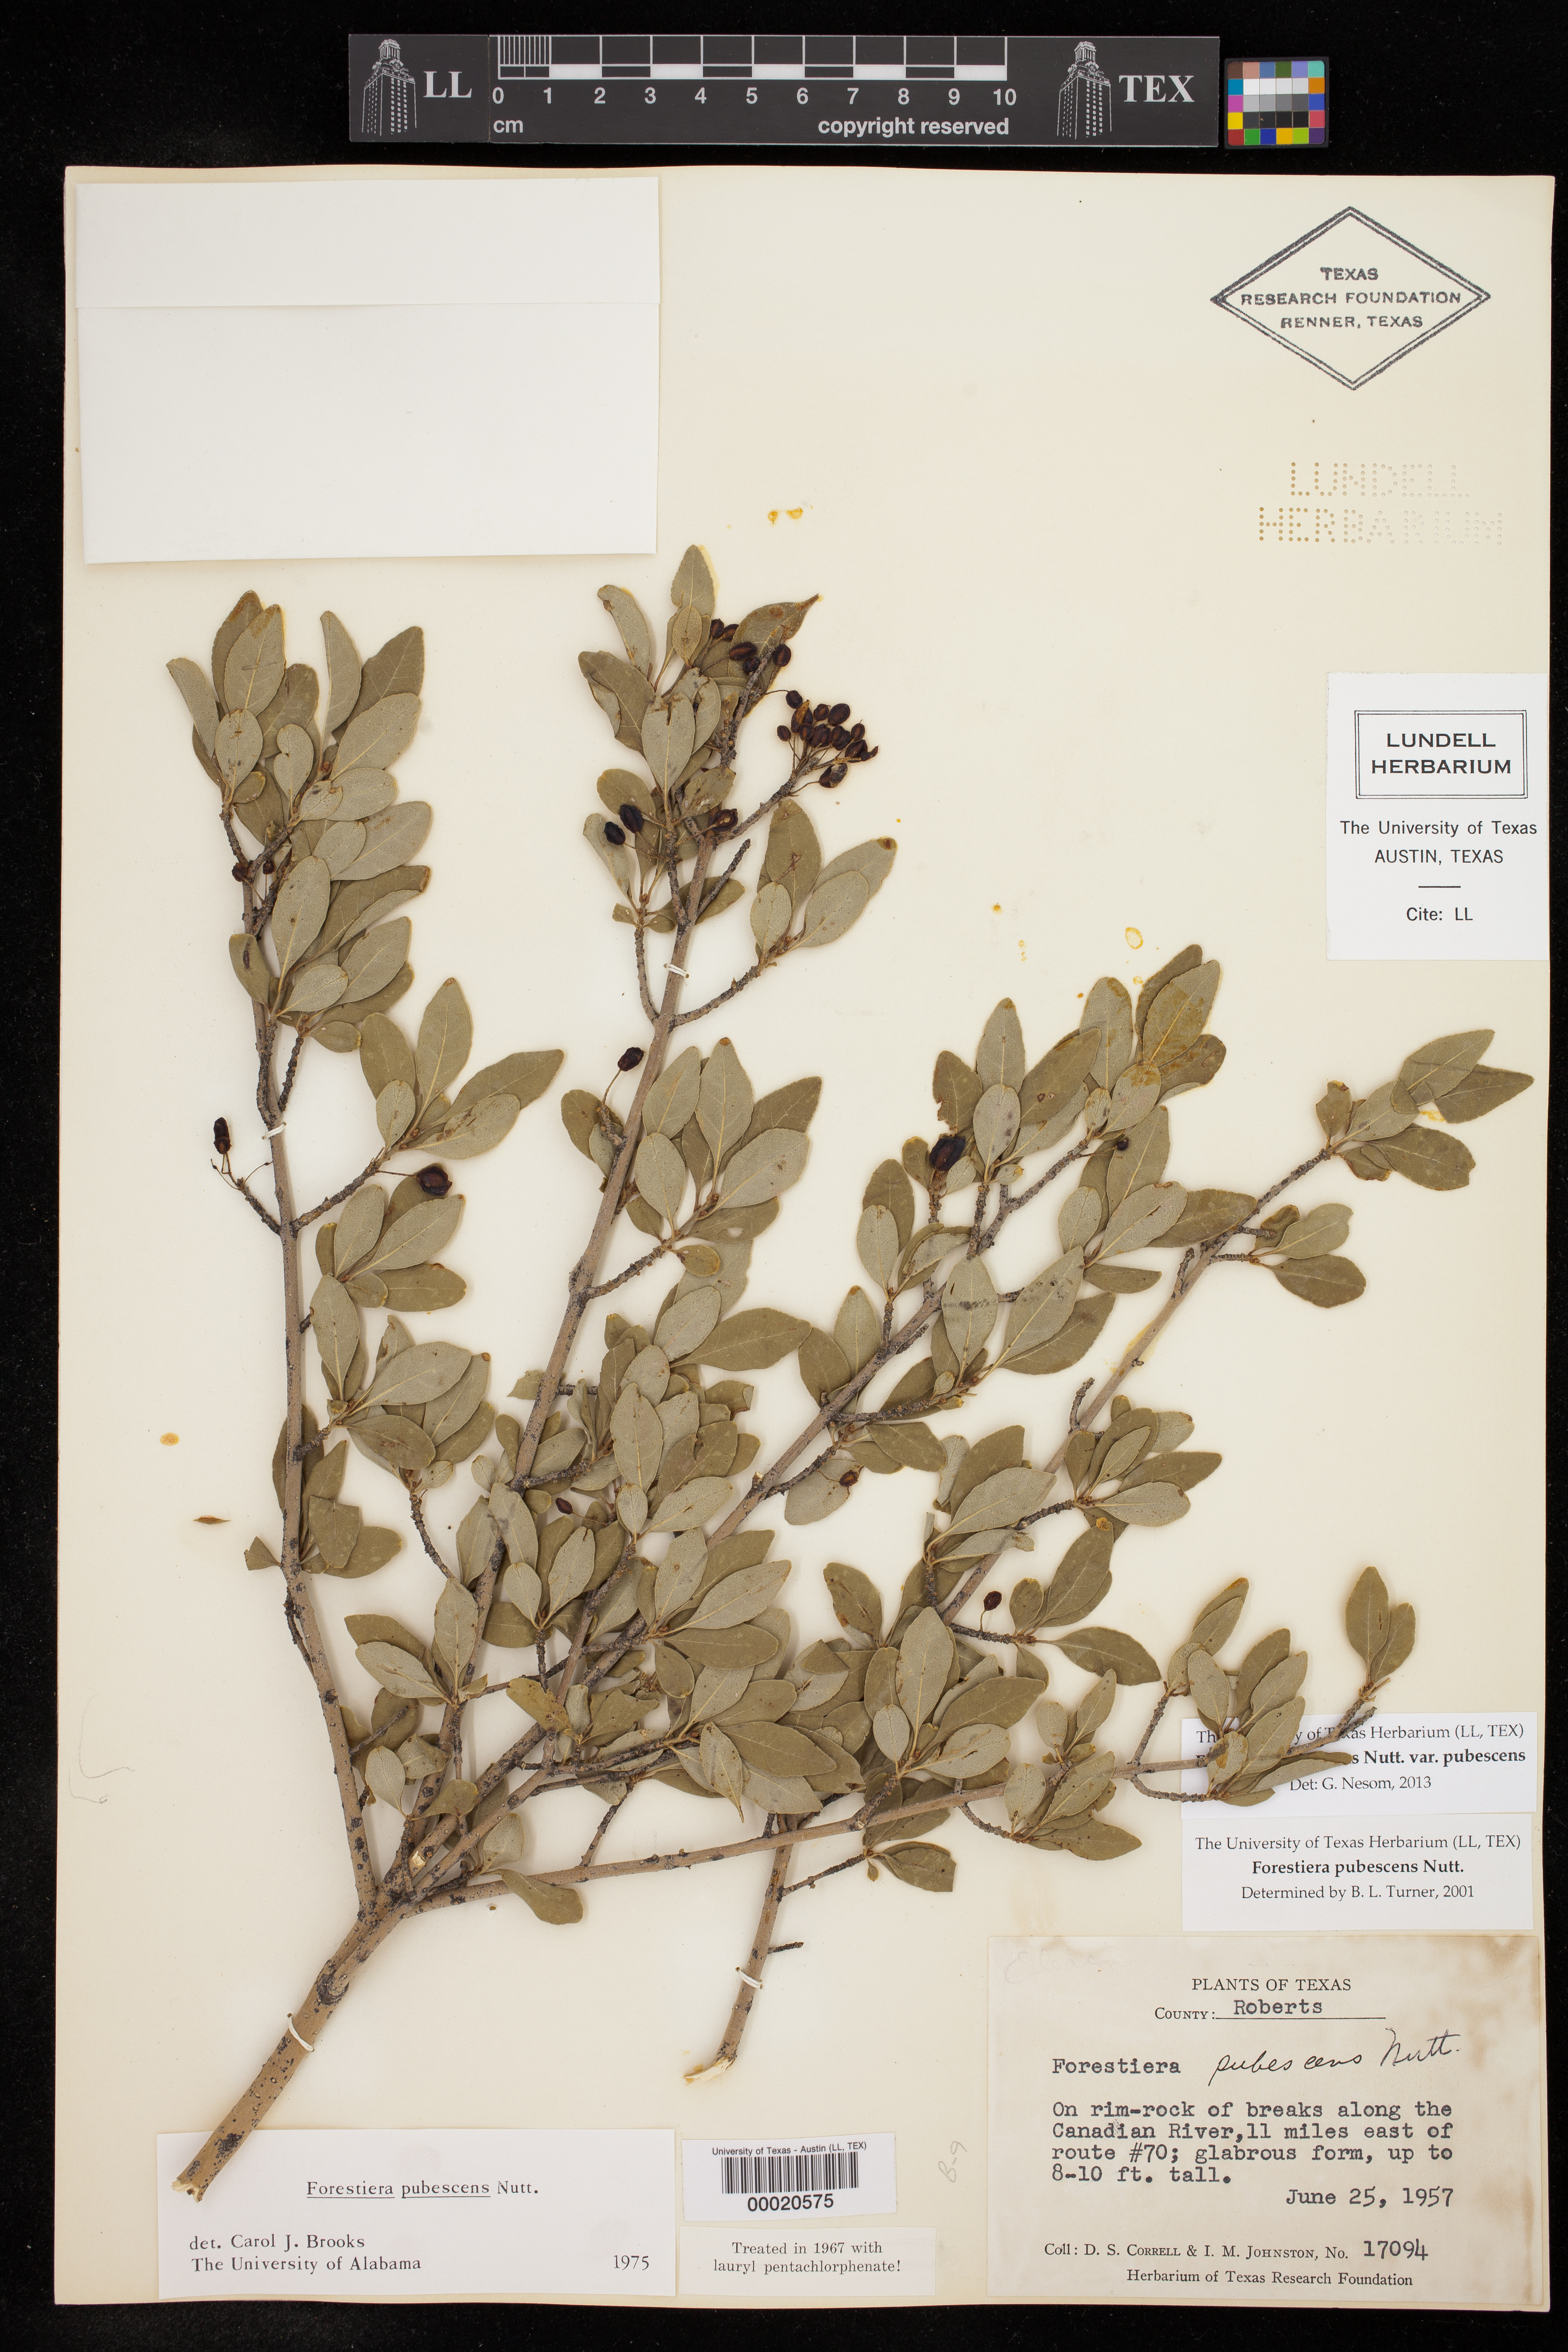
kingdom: Plantae
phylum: Tracheophyta
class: Magnoliopsida
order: Lamiales
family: Oleaceae
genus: Forestiera
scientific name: Forestiera pubescens
